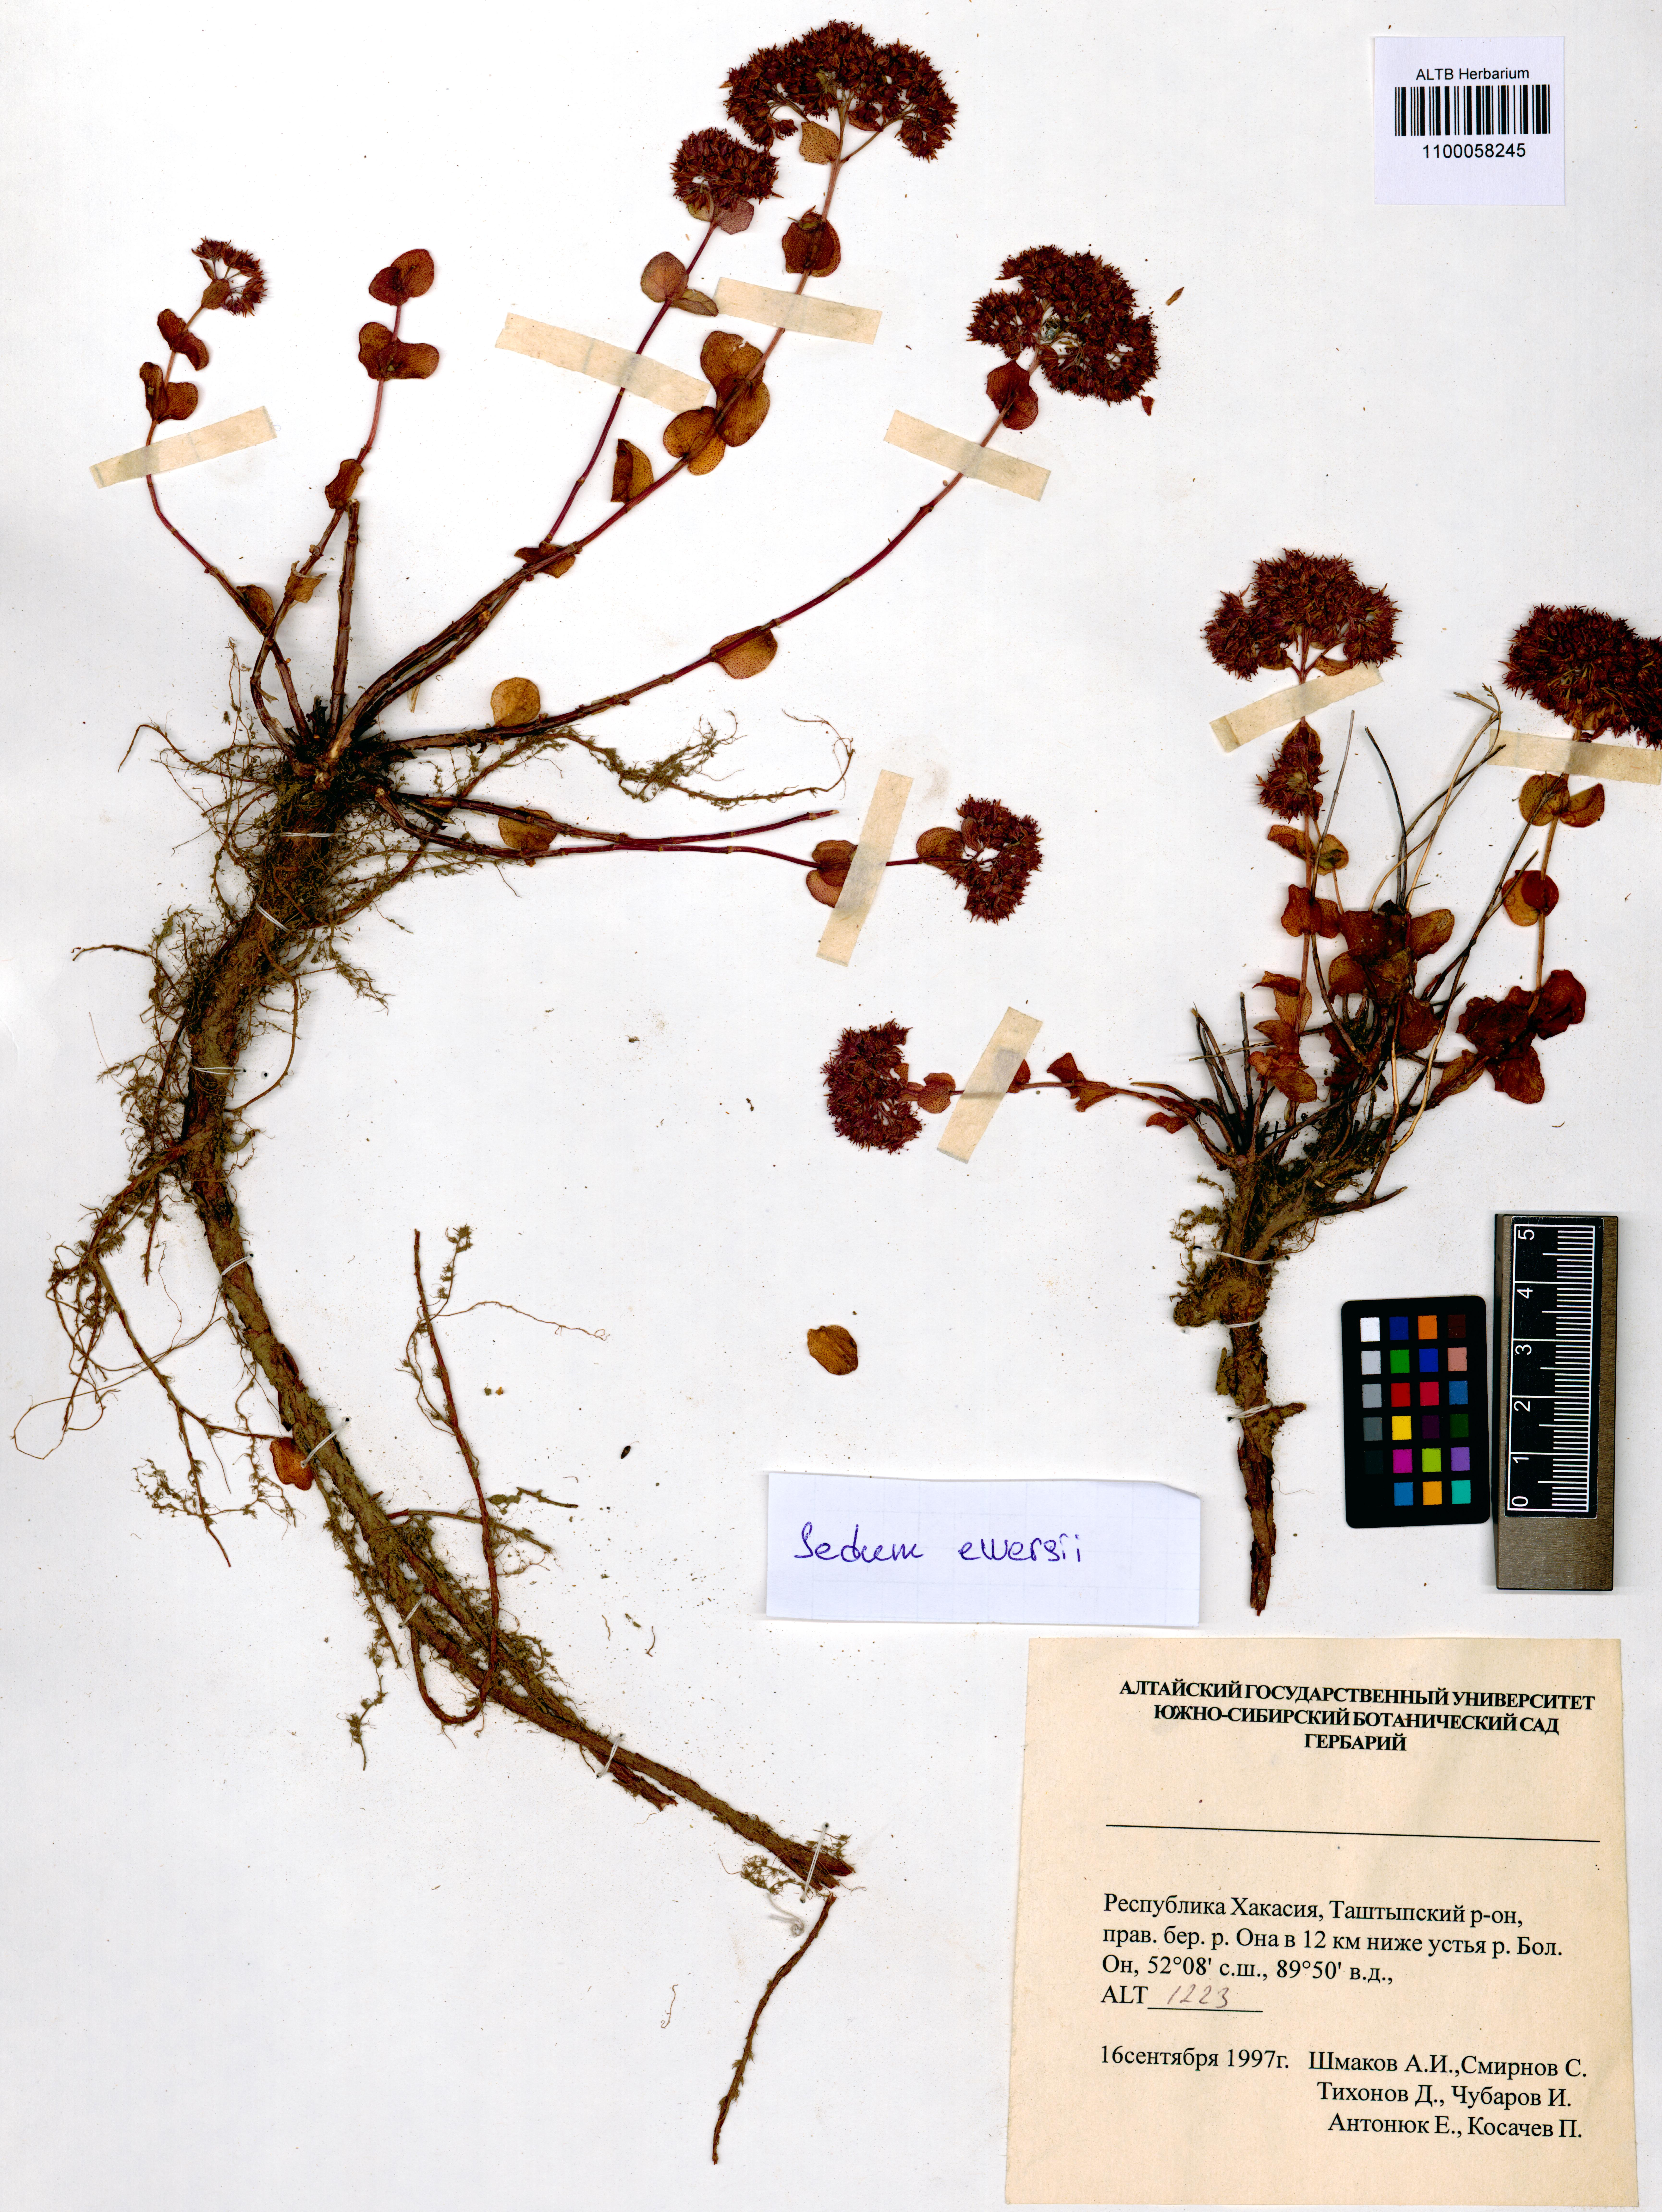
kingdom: Plantae
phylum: Tracheophyta
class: Magnoliopsida
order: Saxifragales
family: Crassulaceae
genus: Hylotelephium
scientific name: Hylotelephium ewersii
